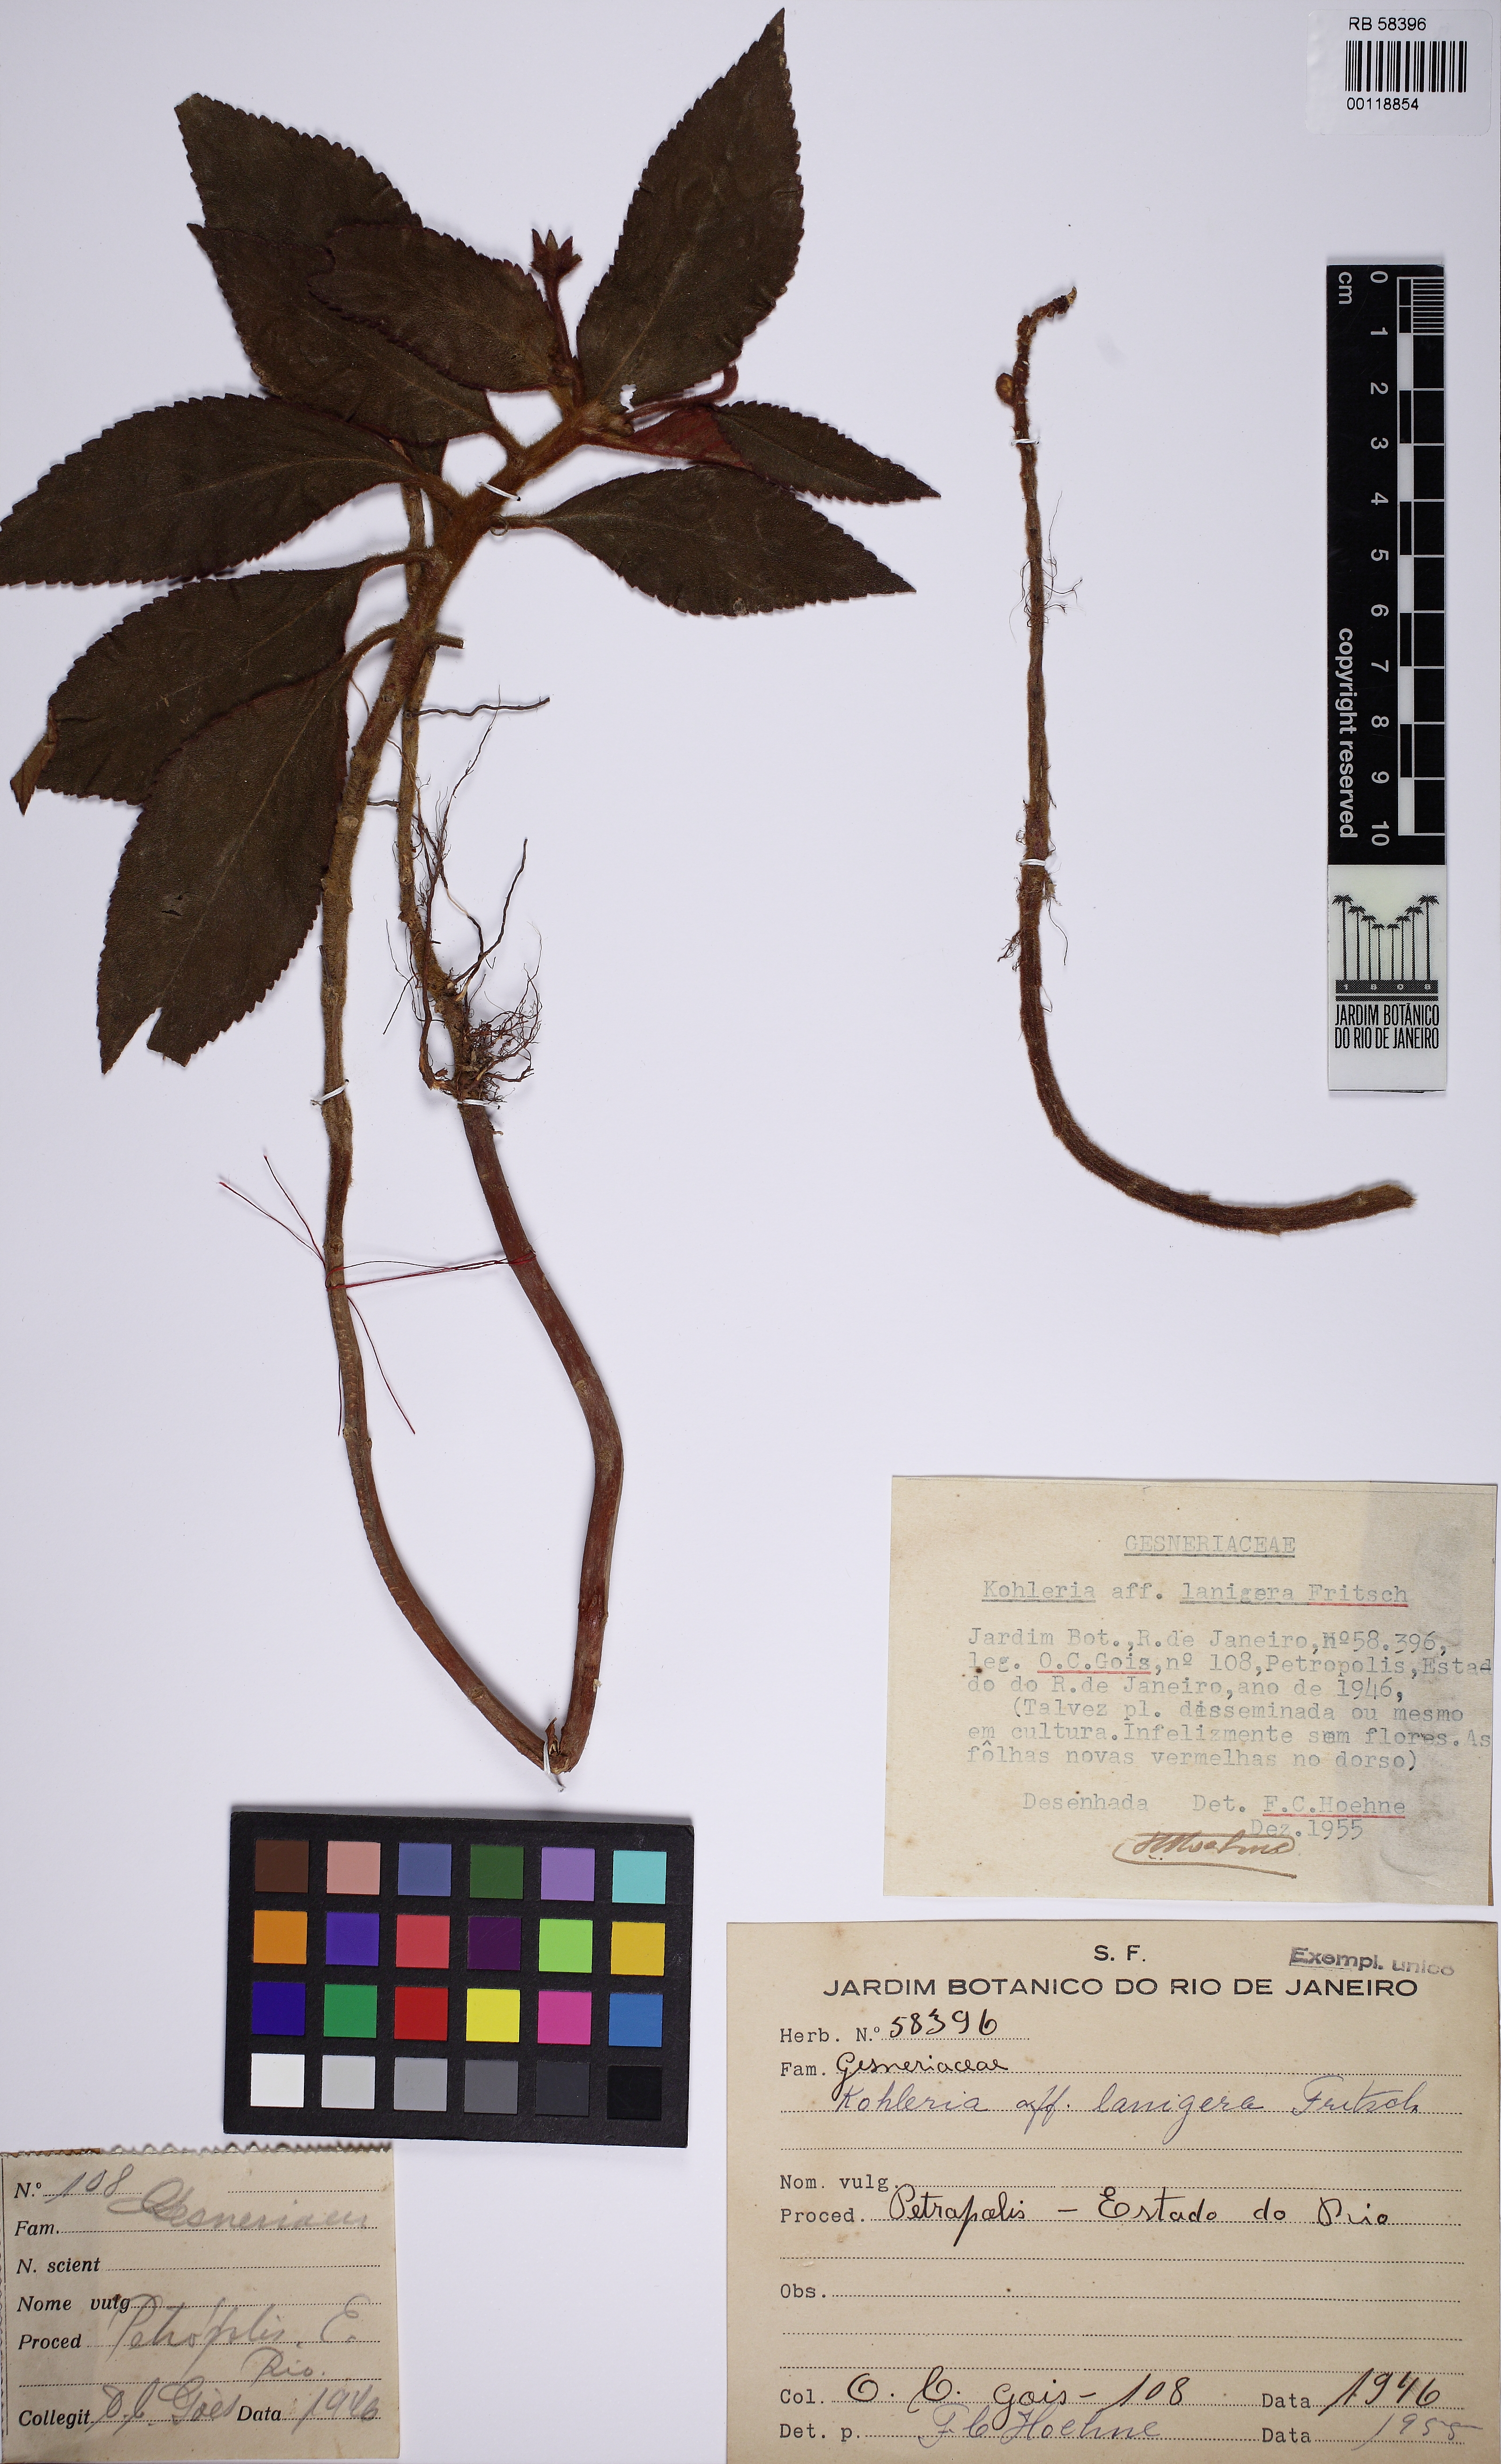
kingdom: Plantae
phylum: Tracheophyta
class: Magnoliopsida
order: Lamiales
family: Gesneriaceae
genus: Kohleria
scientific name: Kohleria hirsuta
